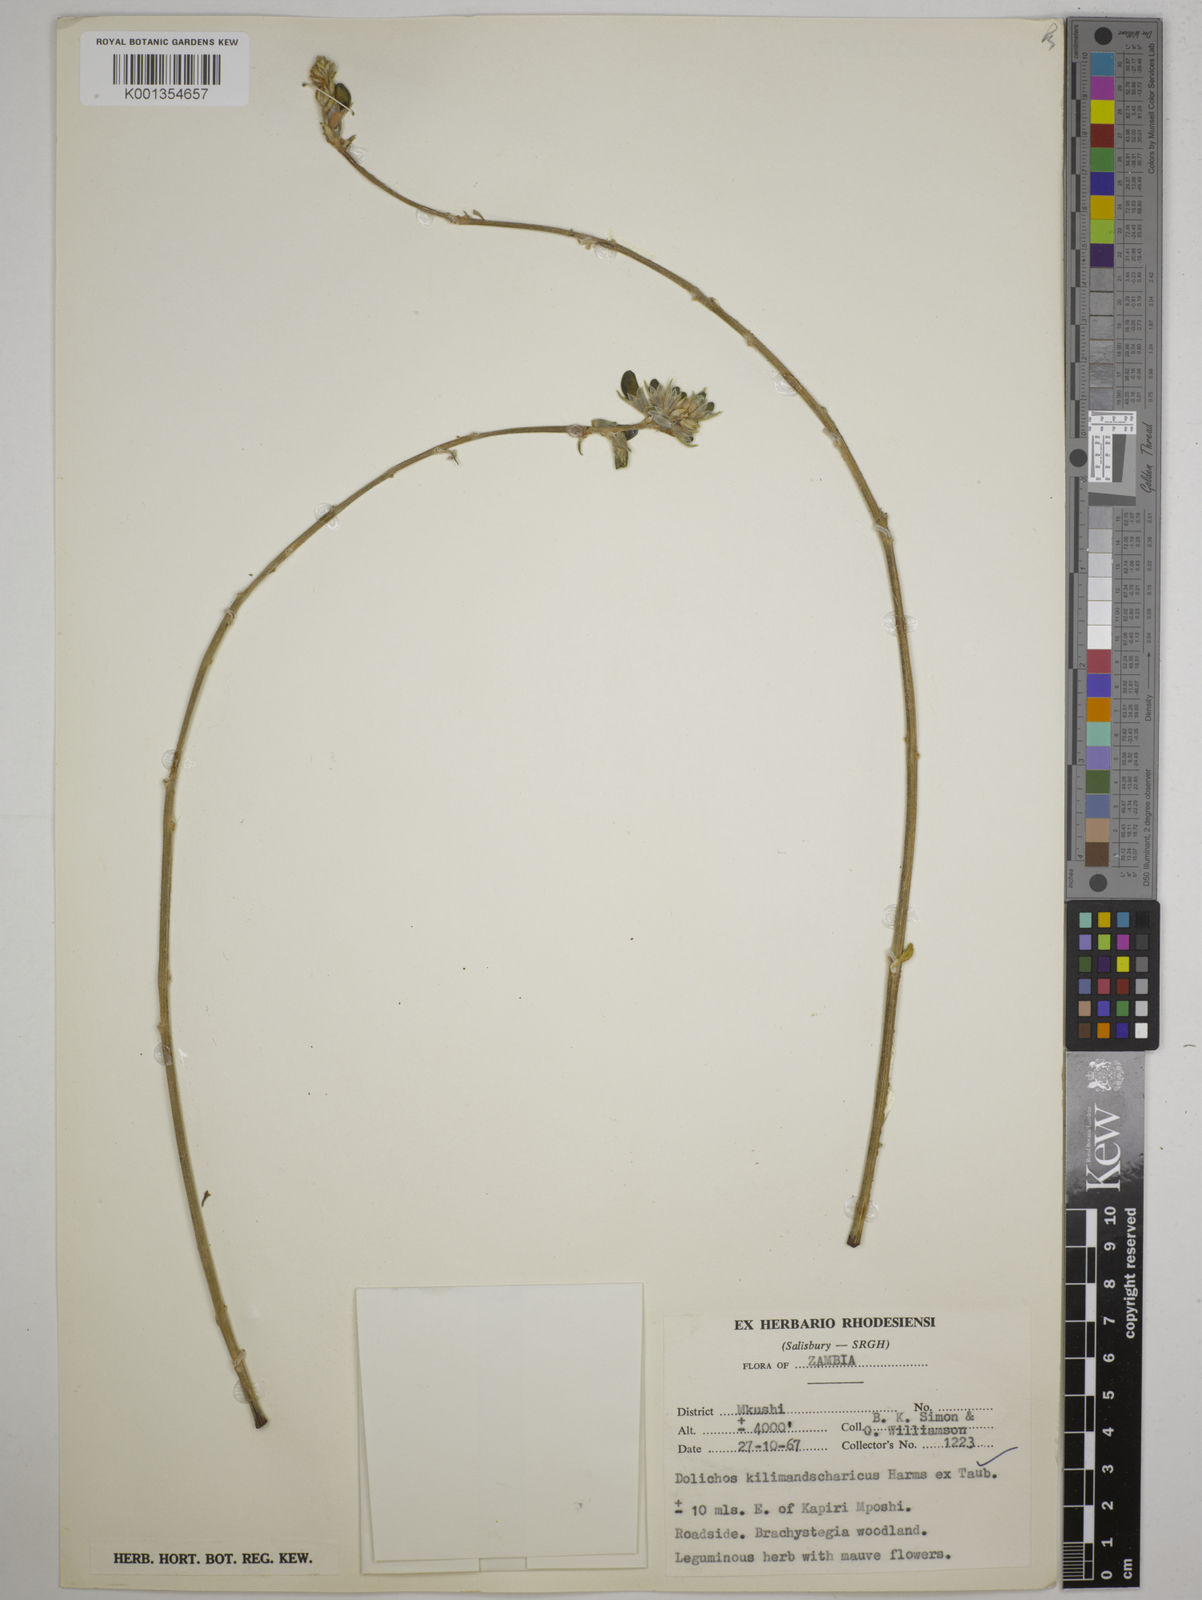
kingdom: Plantae
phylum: Tracheophyta
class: Magnoliopsida
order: Fabales
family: Fabaceae
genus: Dolichos
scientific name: Dolichos kilimandscharicus
